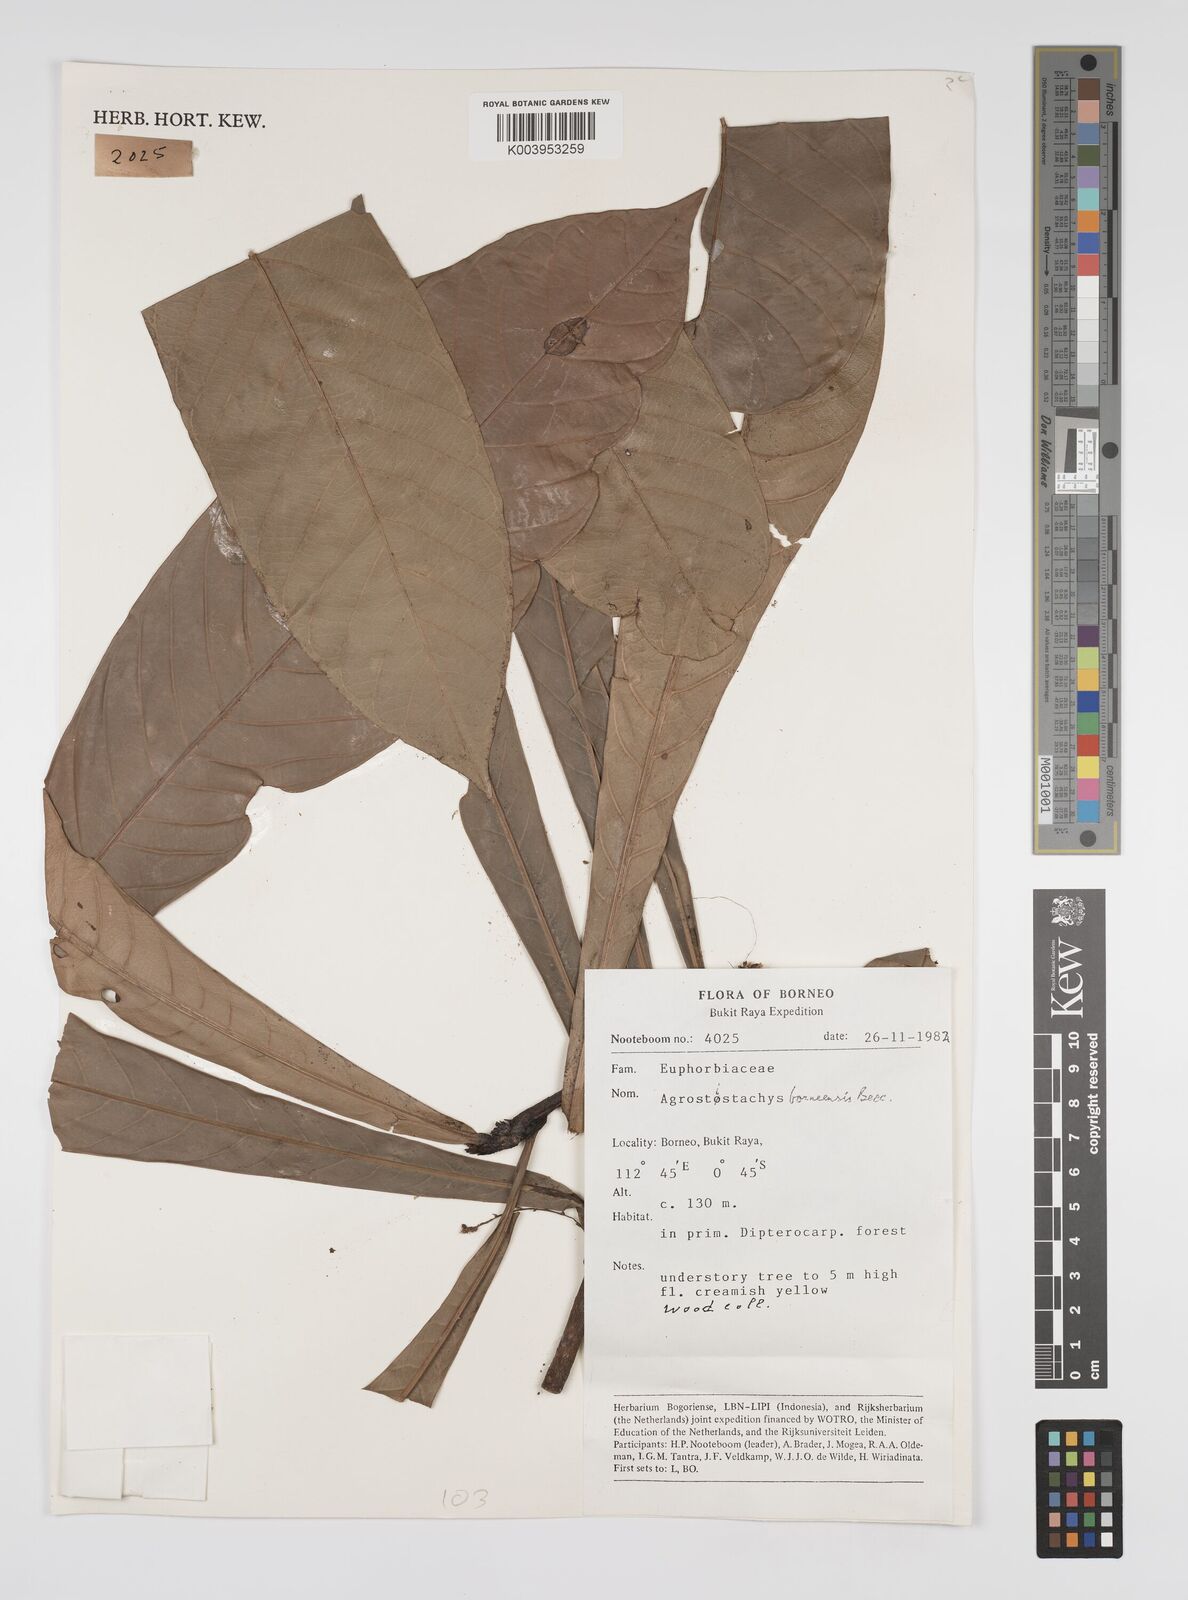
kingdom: Plantae
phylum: Tracheophyta
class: Magnoliopsida
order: Malpighiales
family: Euphorbiaceae
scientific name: Euphorbiaceae
